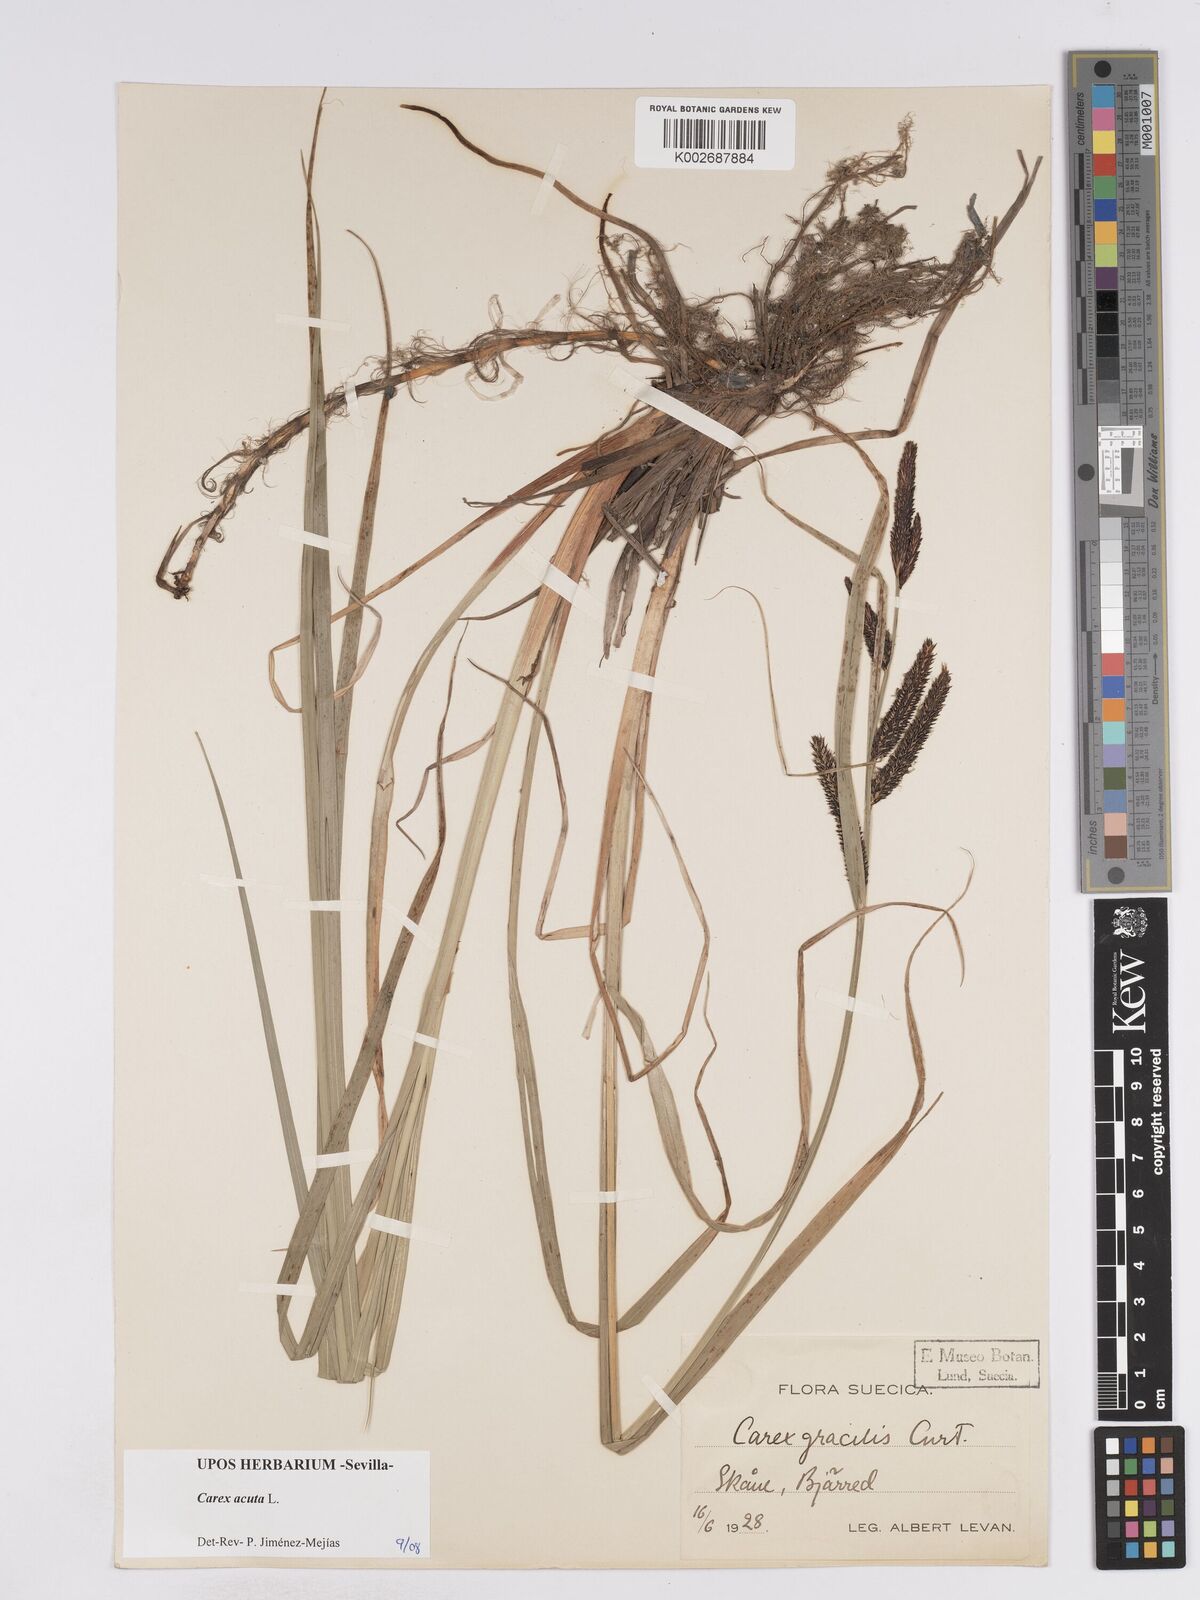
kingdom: Plantae
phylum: Tracheophyta
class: Liliopsida
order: Poales
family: Cyperaceae
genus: Carex
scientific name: Carex acuta
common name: Slender tufted-sedge
